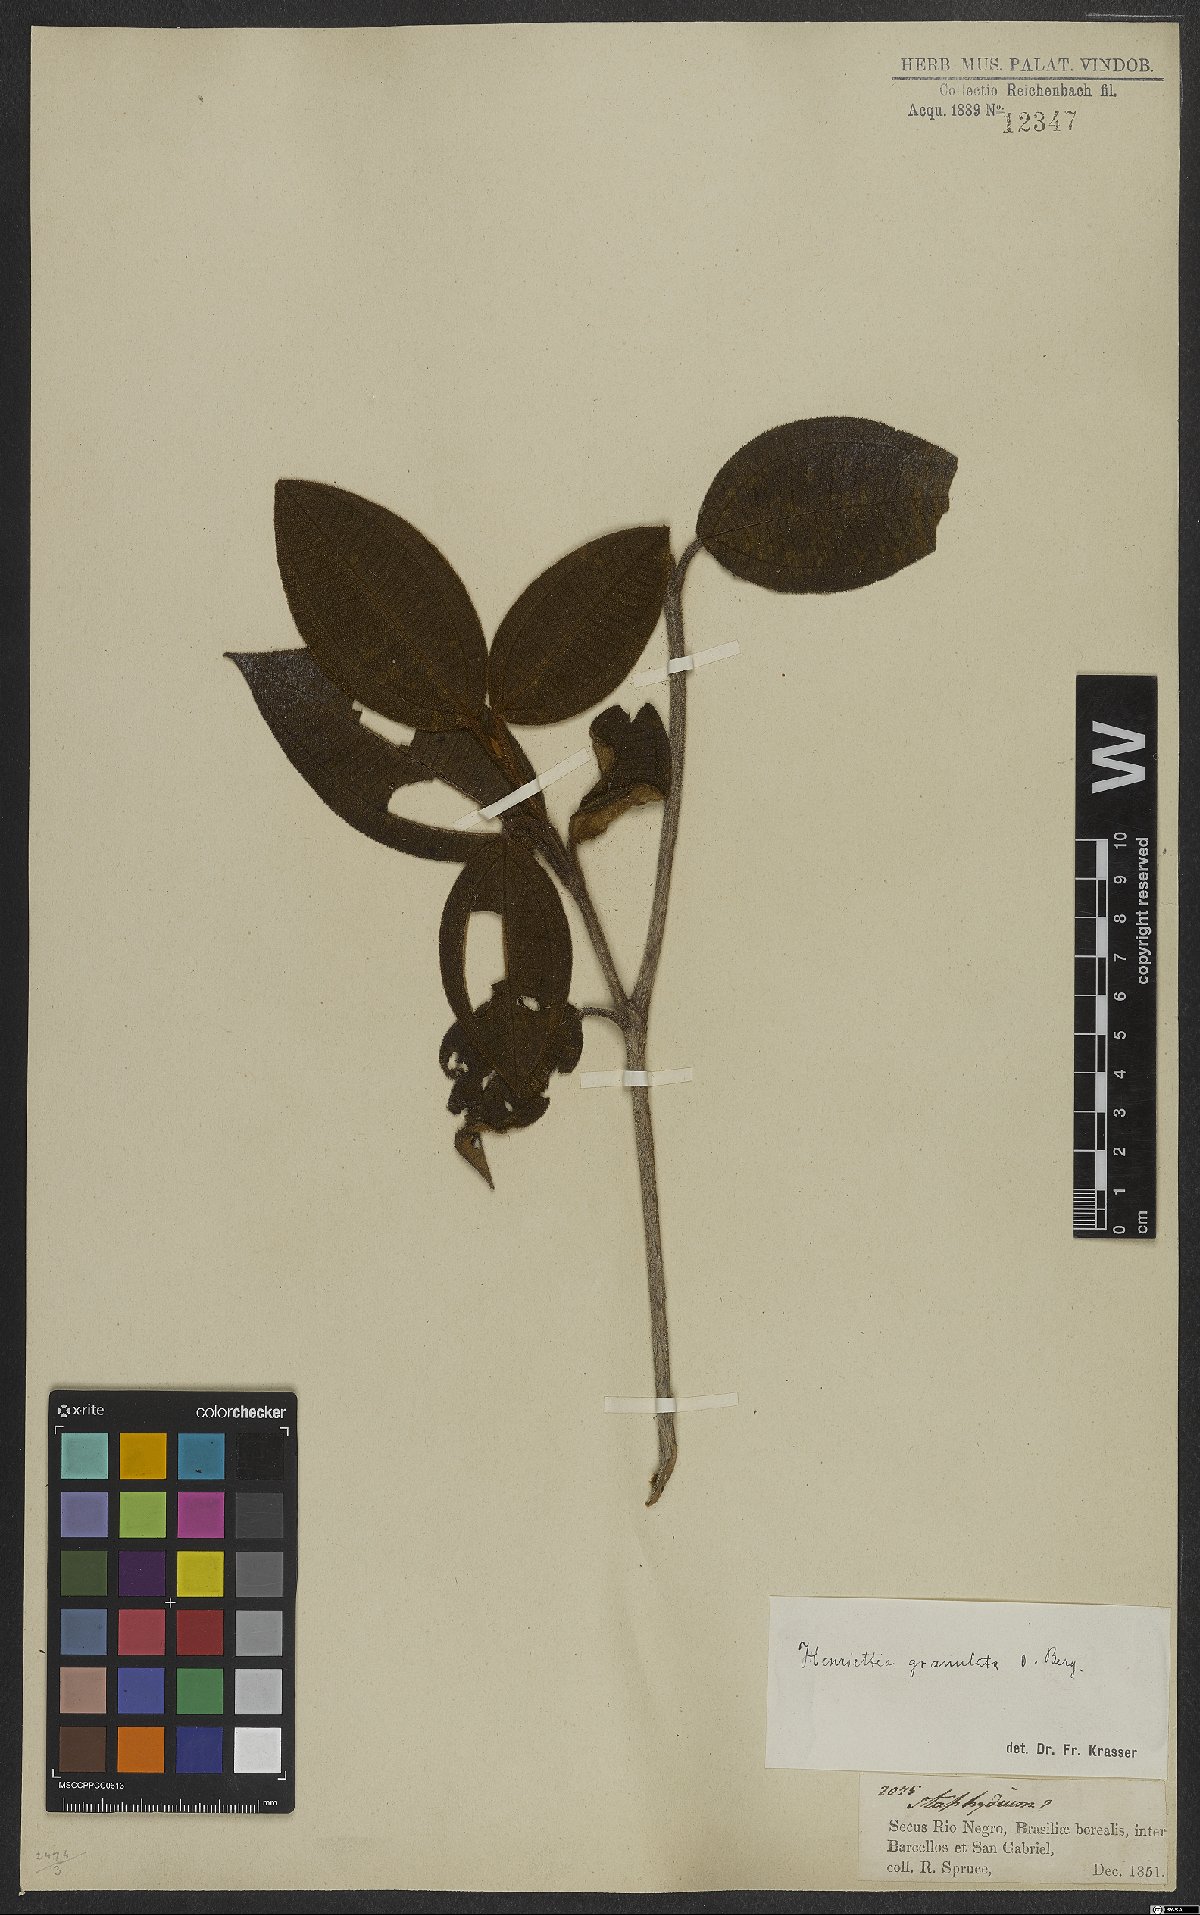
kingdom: Plantae
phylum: Tracheophyta
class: Magnoliopsida
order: Myrtales
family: Melastomataceae
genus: Henriettea
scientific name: Henriettea granulata
